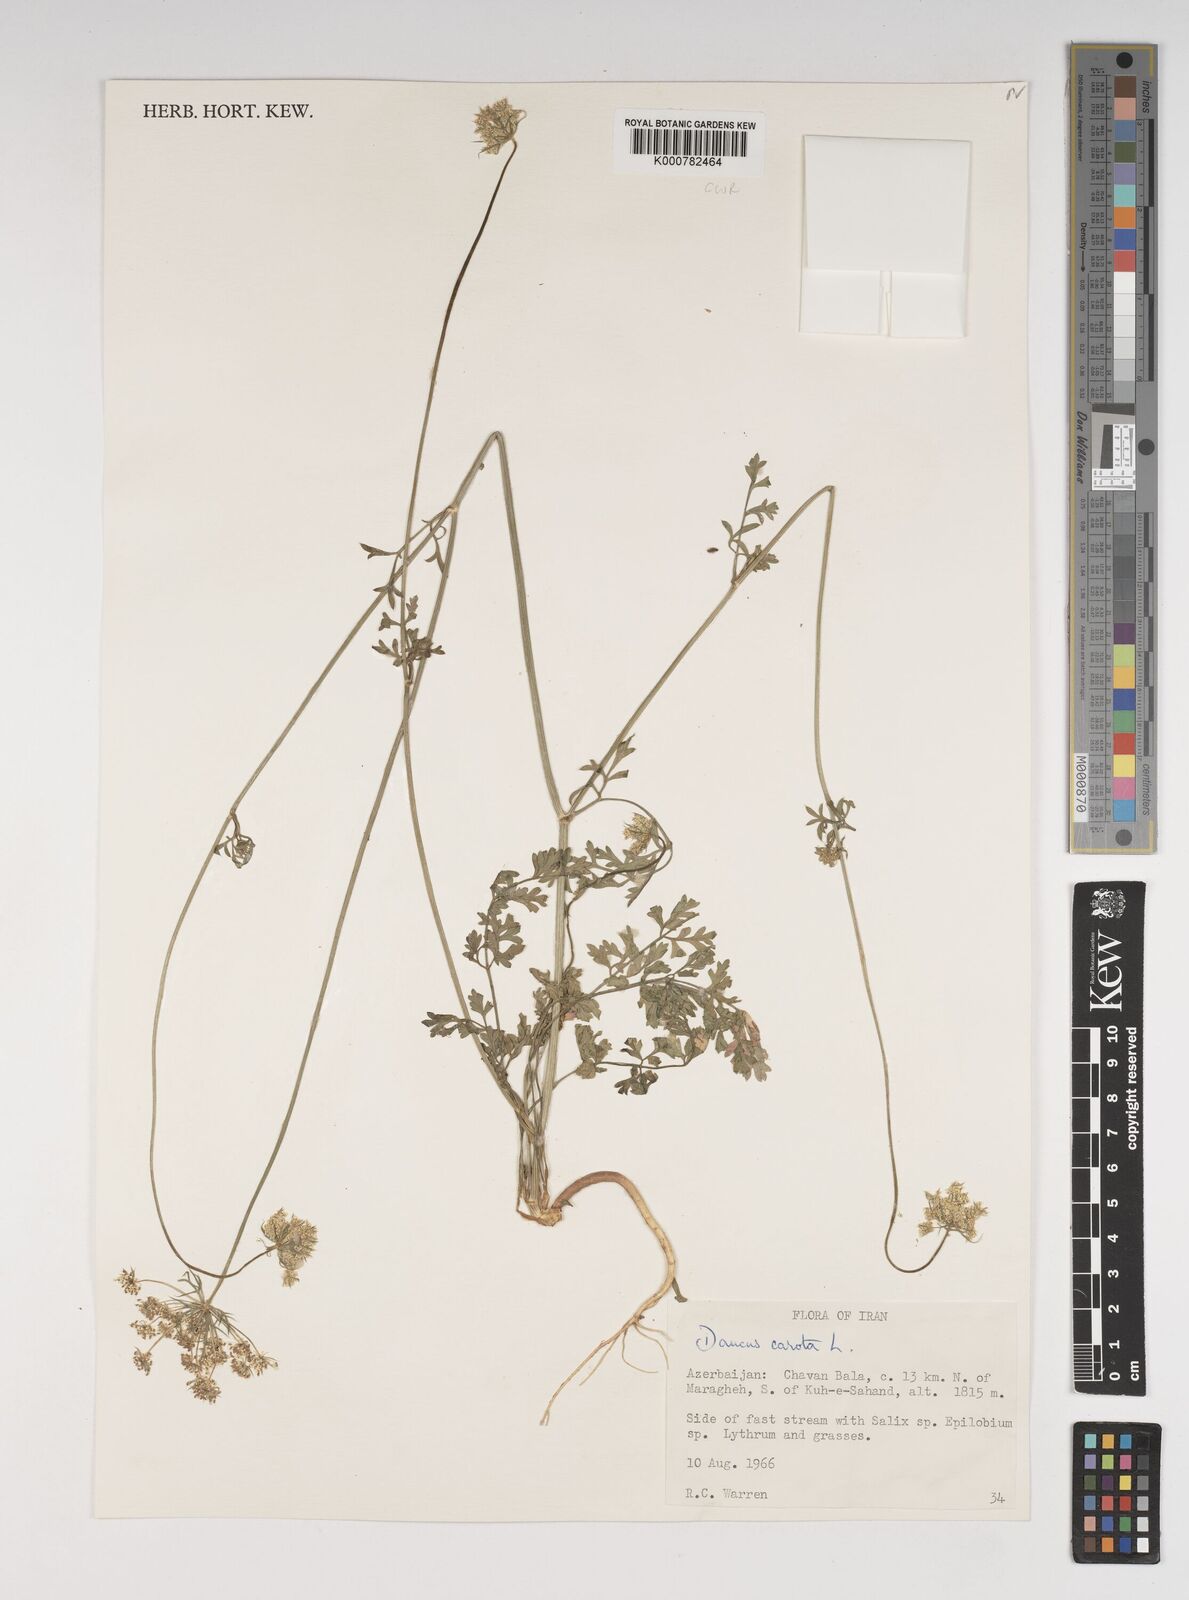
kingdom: Plantae
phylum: Tracheophyta
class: Magnoliopsida
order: Apiales
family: Apiaceae
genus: Daucus
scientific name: Daucus carota
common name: Wild carrot
